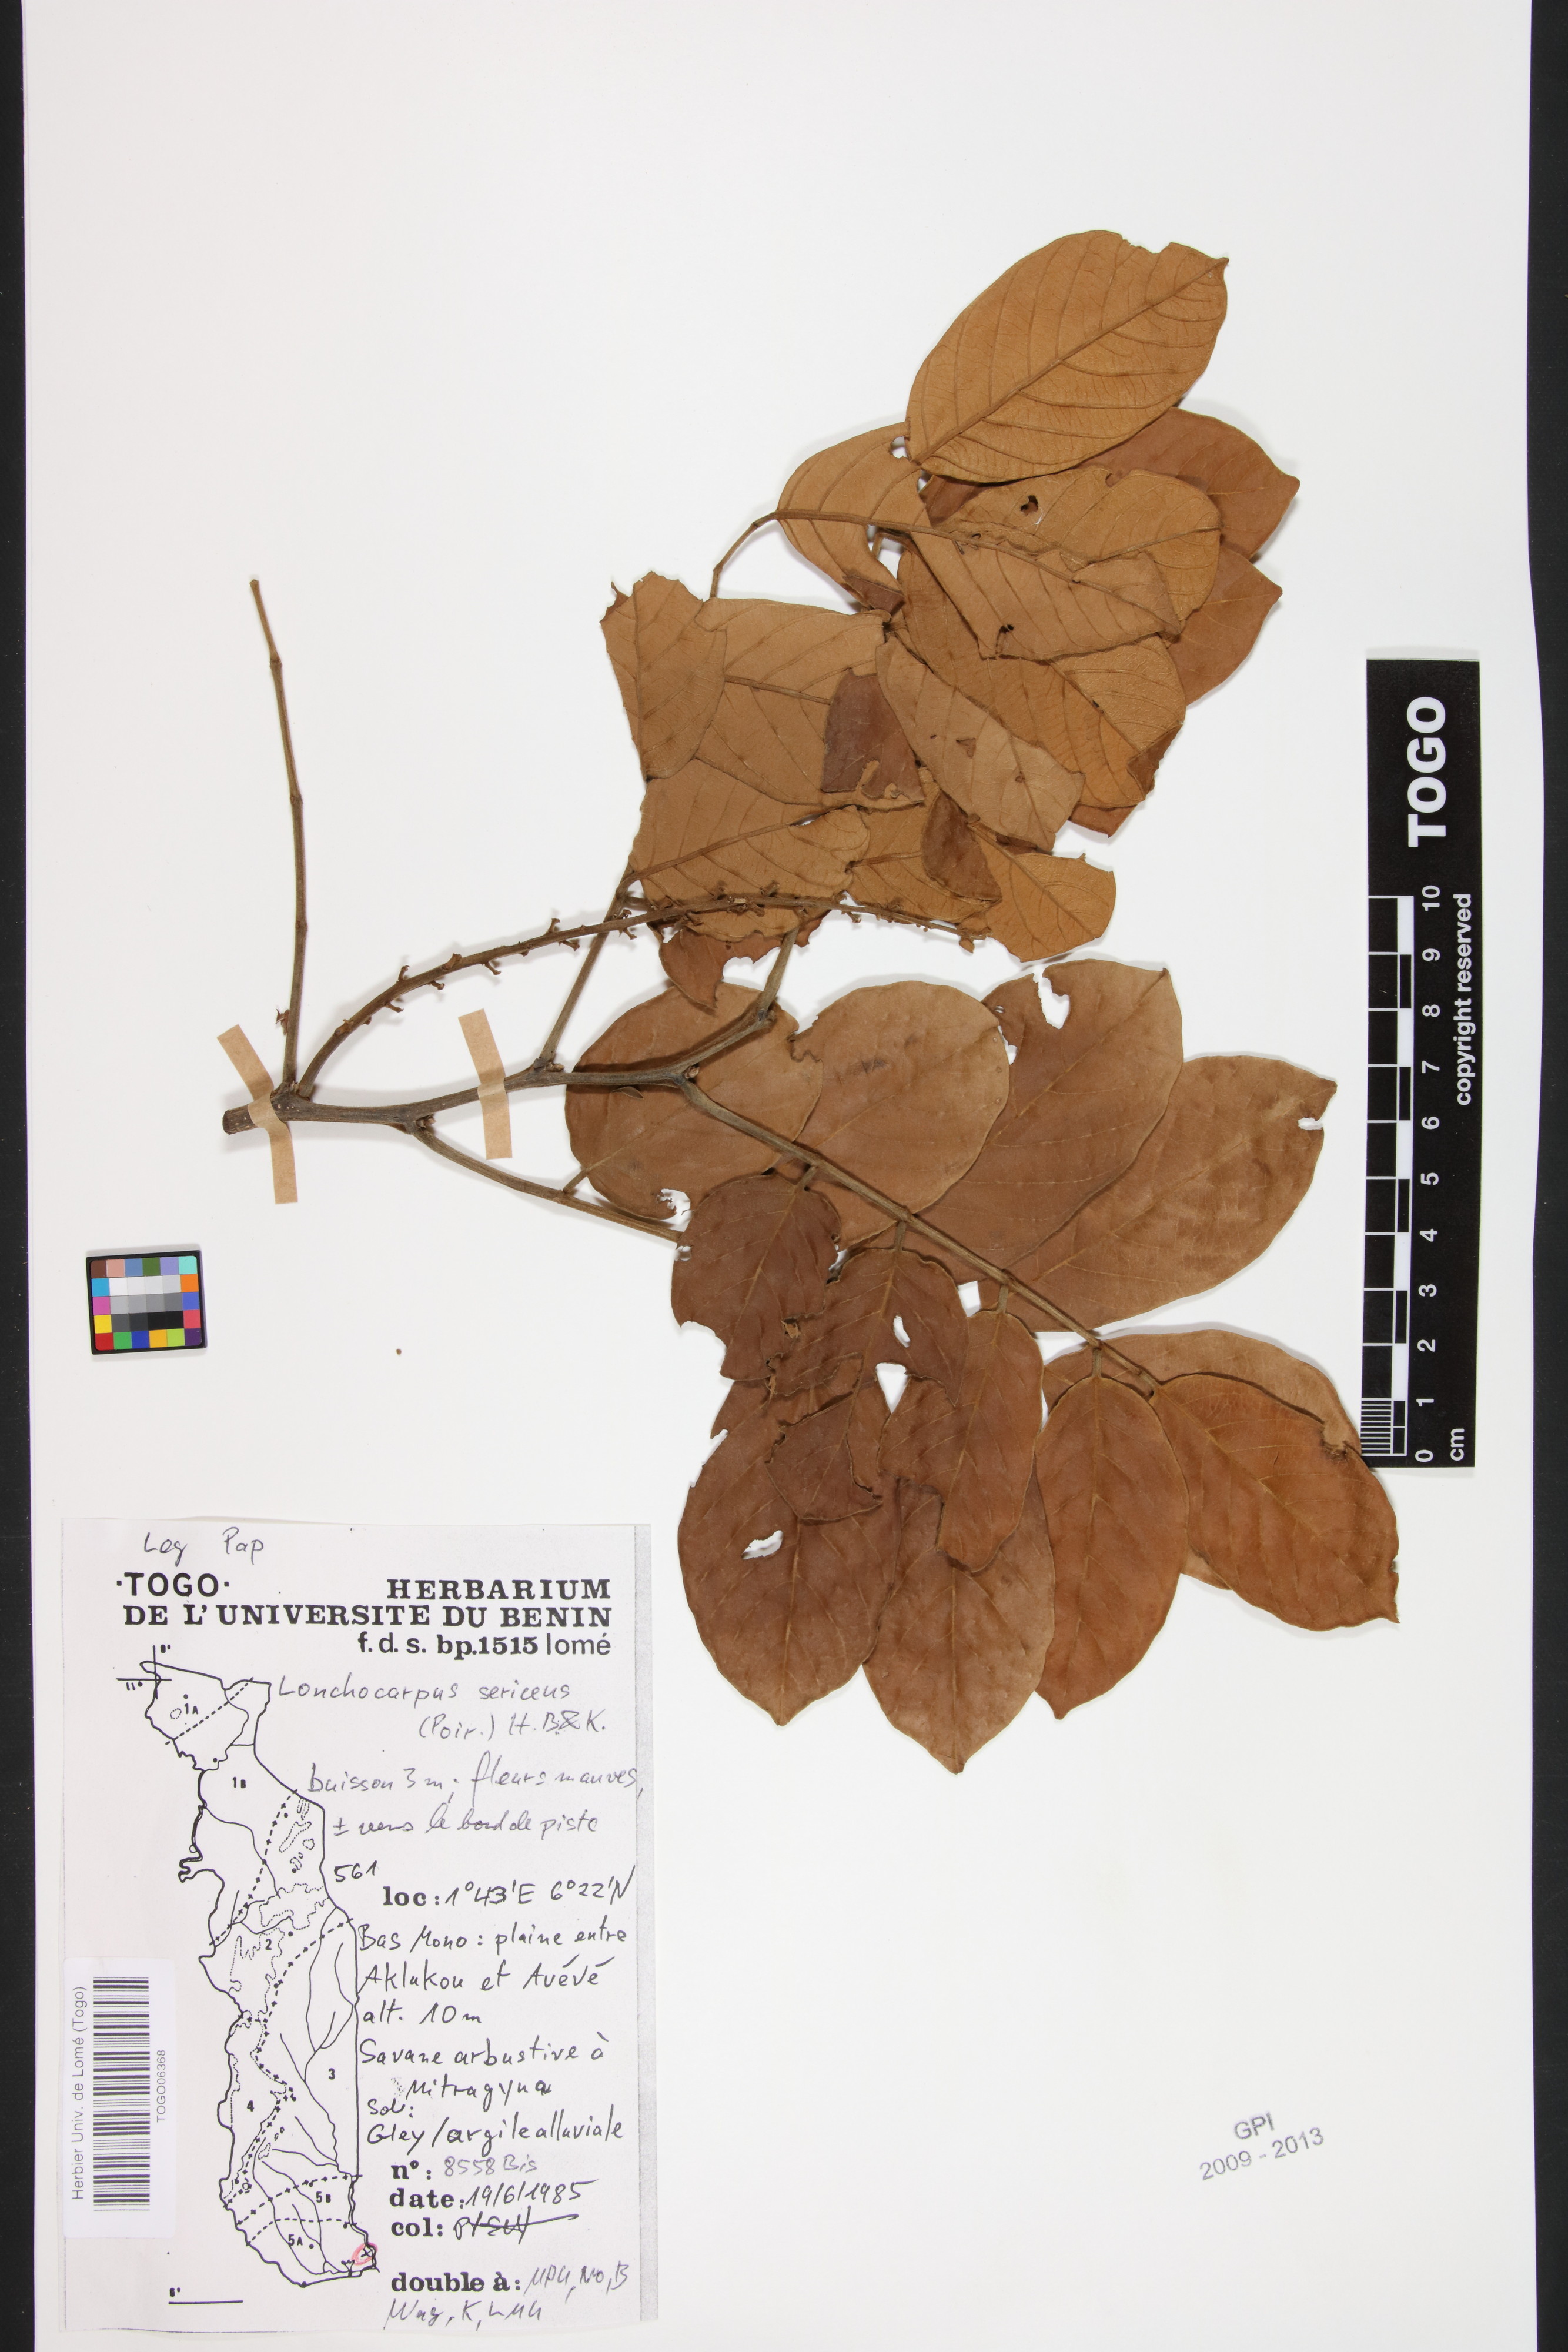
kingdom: Plantae
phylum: Tracheophyta
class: Magnoliopsida
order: Fabales
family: Fabaceae
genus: Lonchocarpus
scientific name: Lonchocarpus sericeus
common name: Savonette
